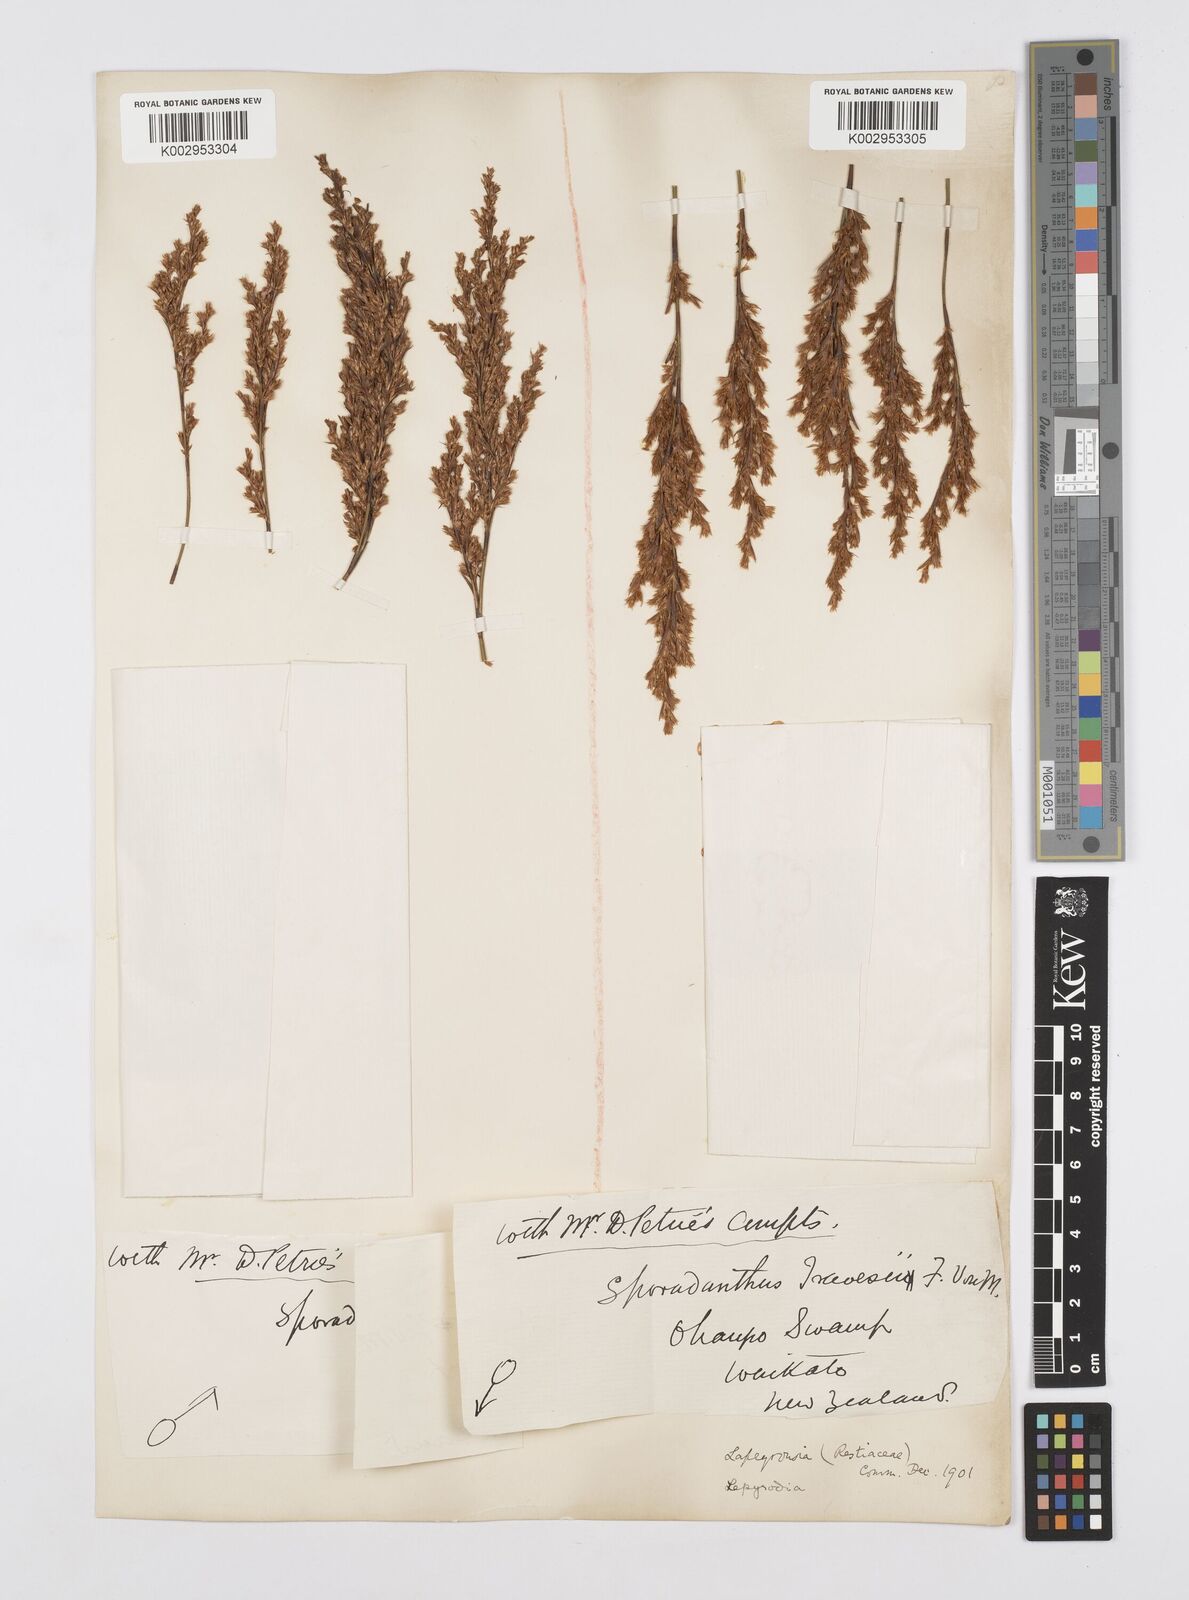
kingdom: Plantae
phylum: Tracheophyta
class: Liliopsida
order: Poales
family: Restionaceae
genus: Sporadanthus
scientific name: Sporadanthus traversii
